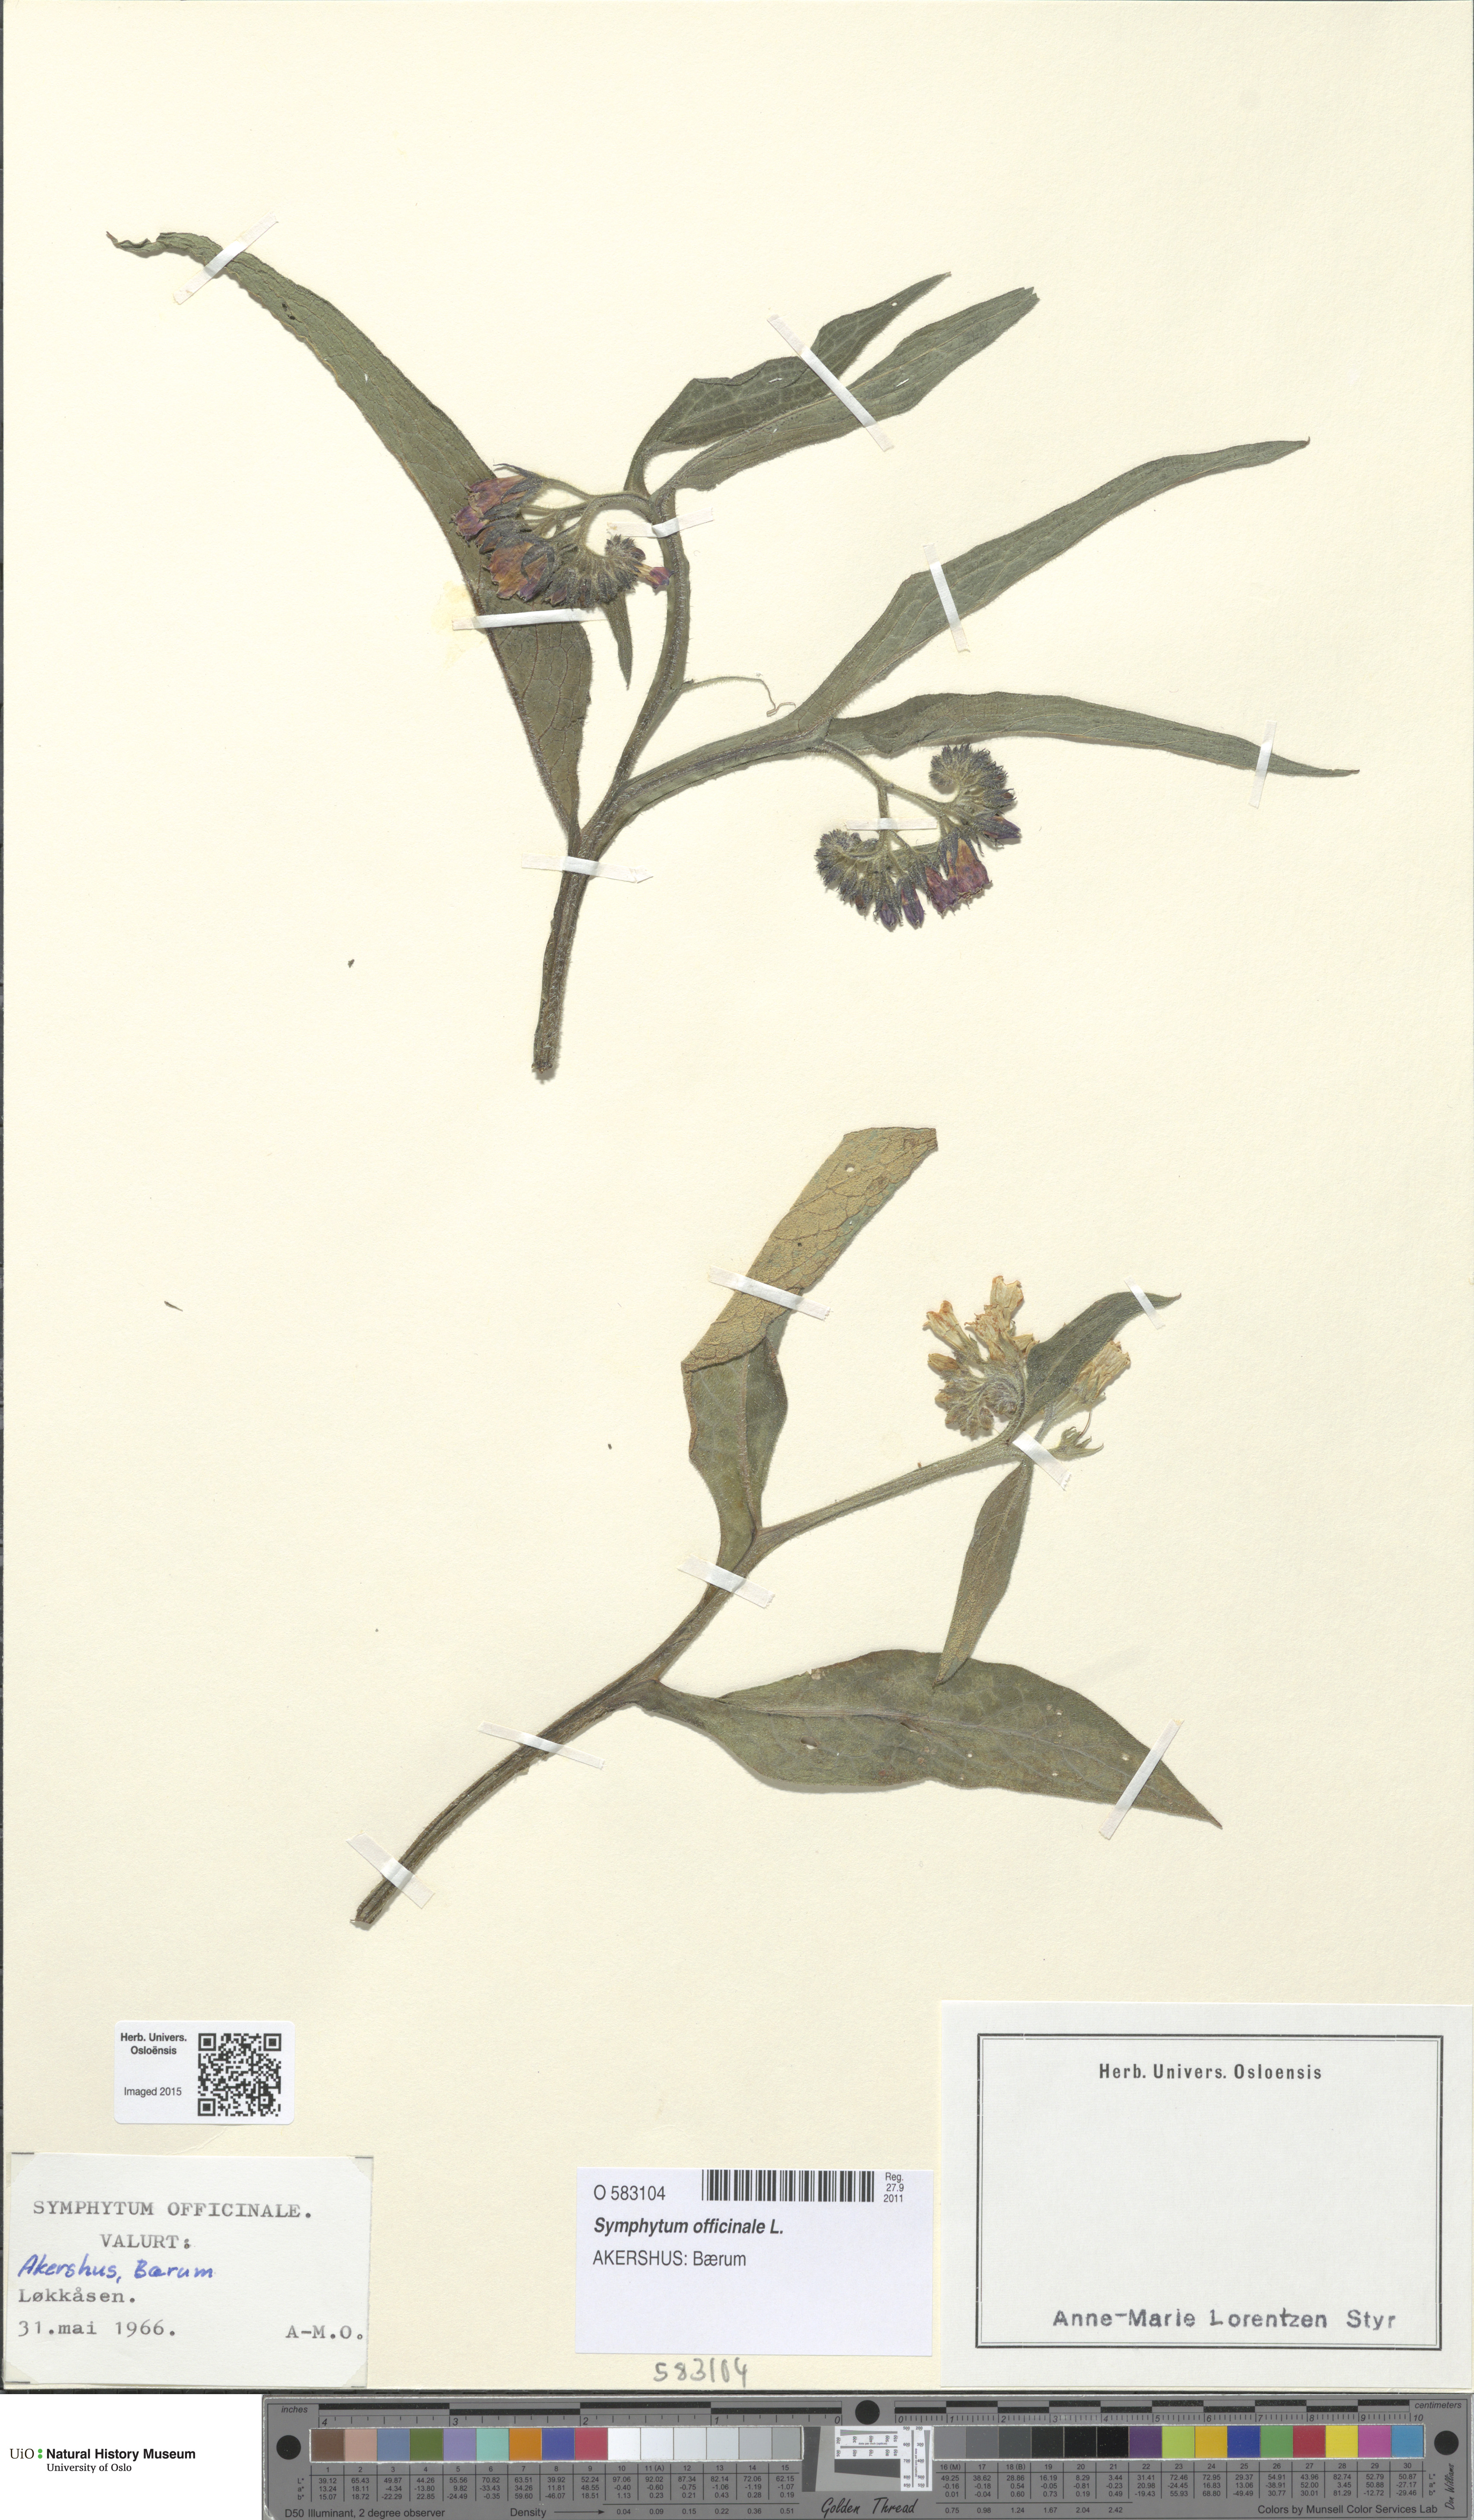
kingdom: Plantae
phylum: Tracheophyta
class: Magnoliopsida
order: Boraginales
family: Boraginaceae
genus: Symphytum
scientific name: Symphytum officinale
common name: Common comfrey
